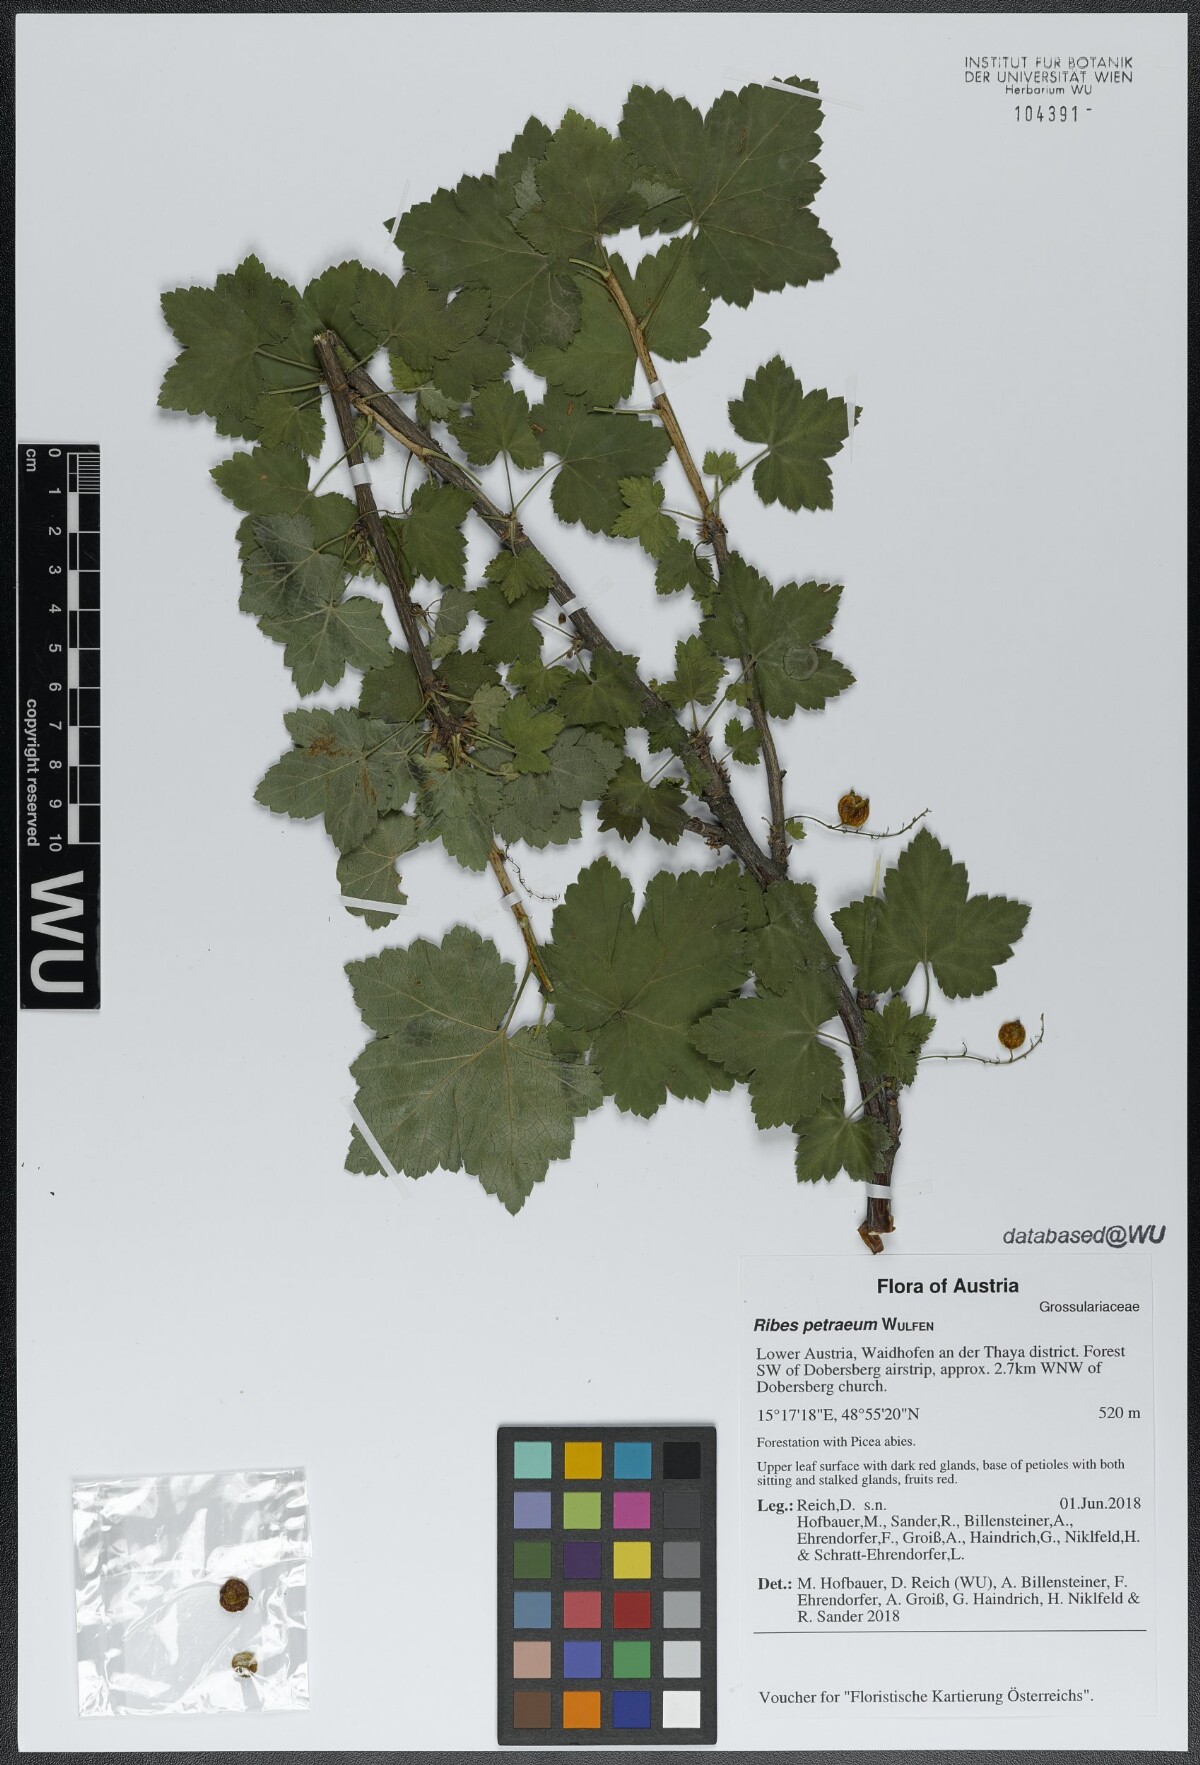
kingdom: Plantae
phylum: Tracheophyta
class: Magnoliopsida
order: Saxifragales
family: Grossulariaceae
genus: Ribes
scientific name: Ribes petraeum
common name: Rock currant
